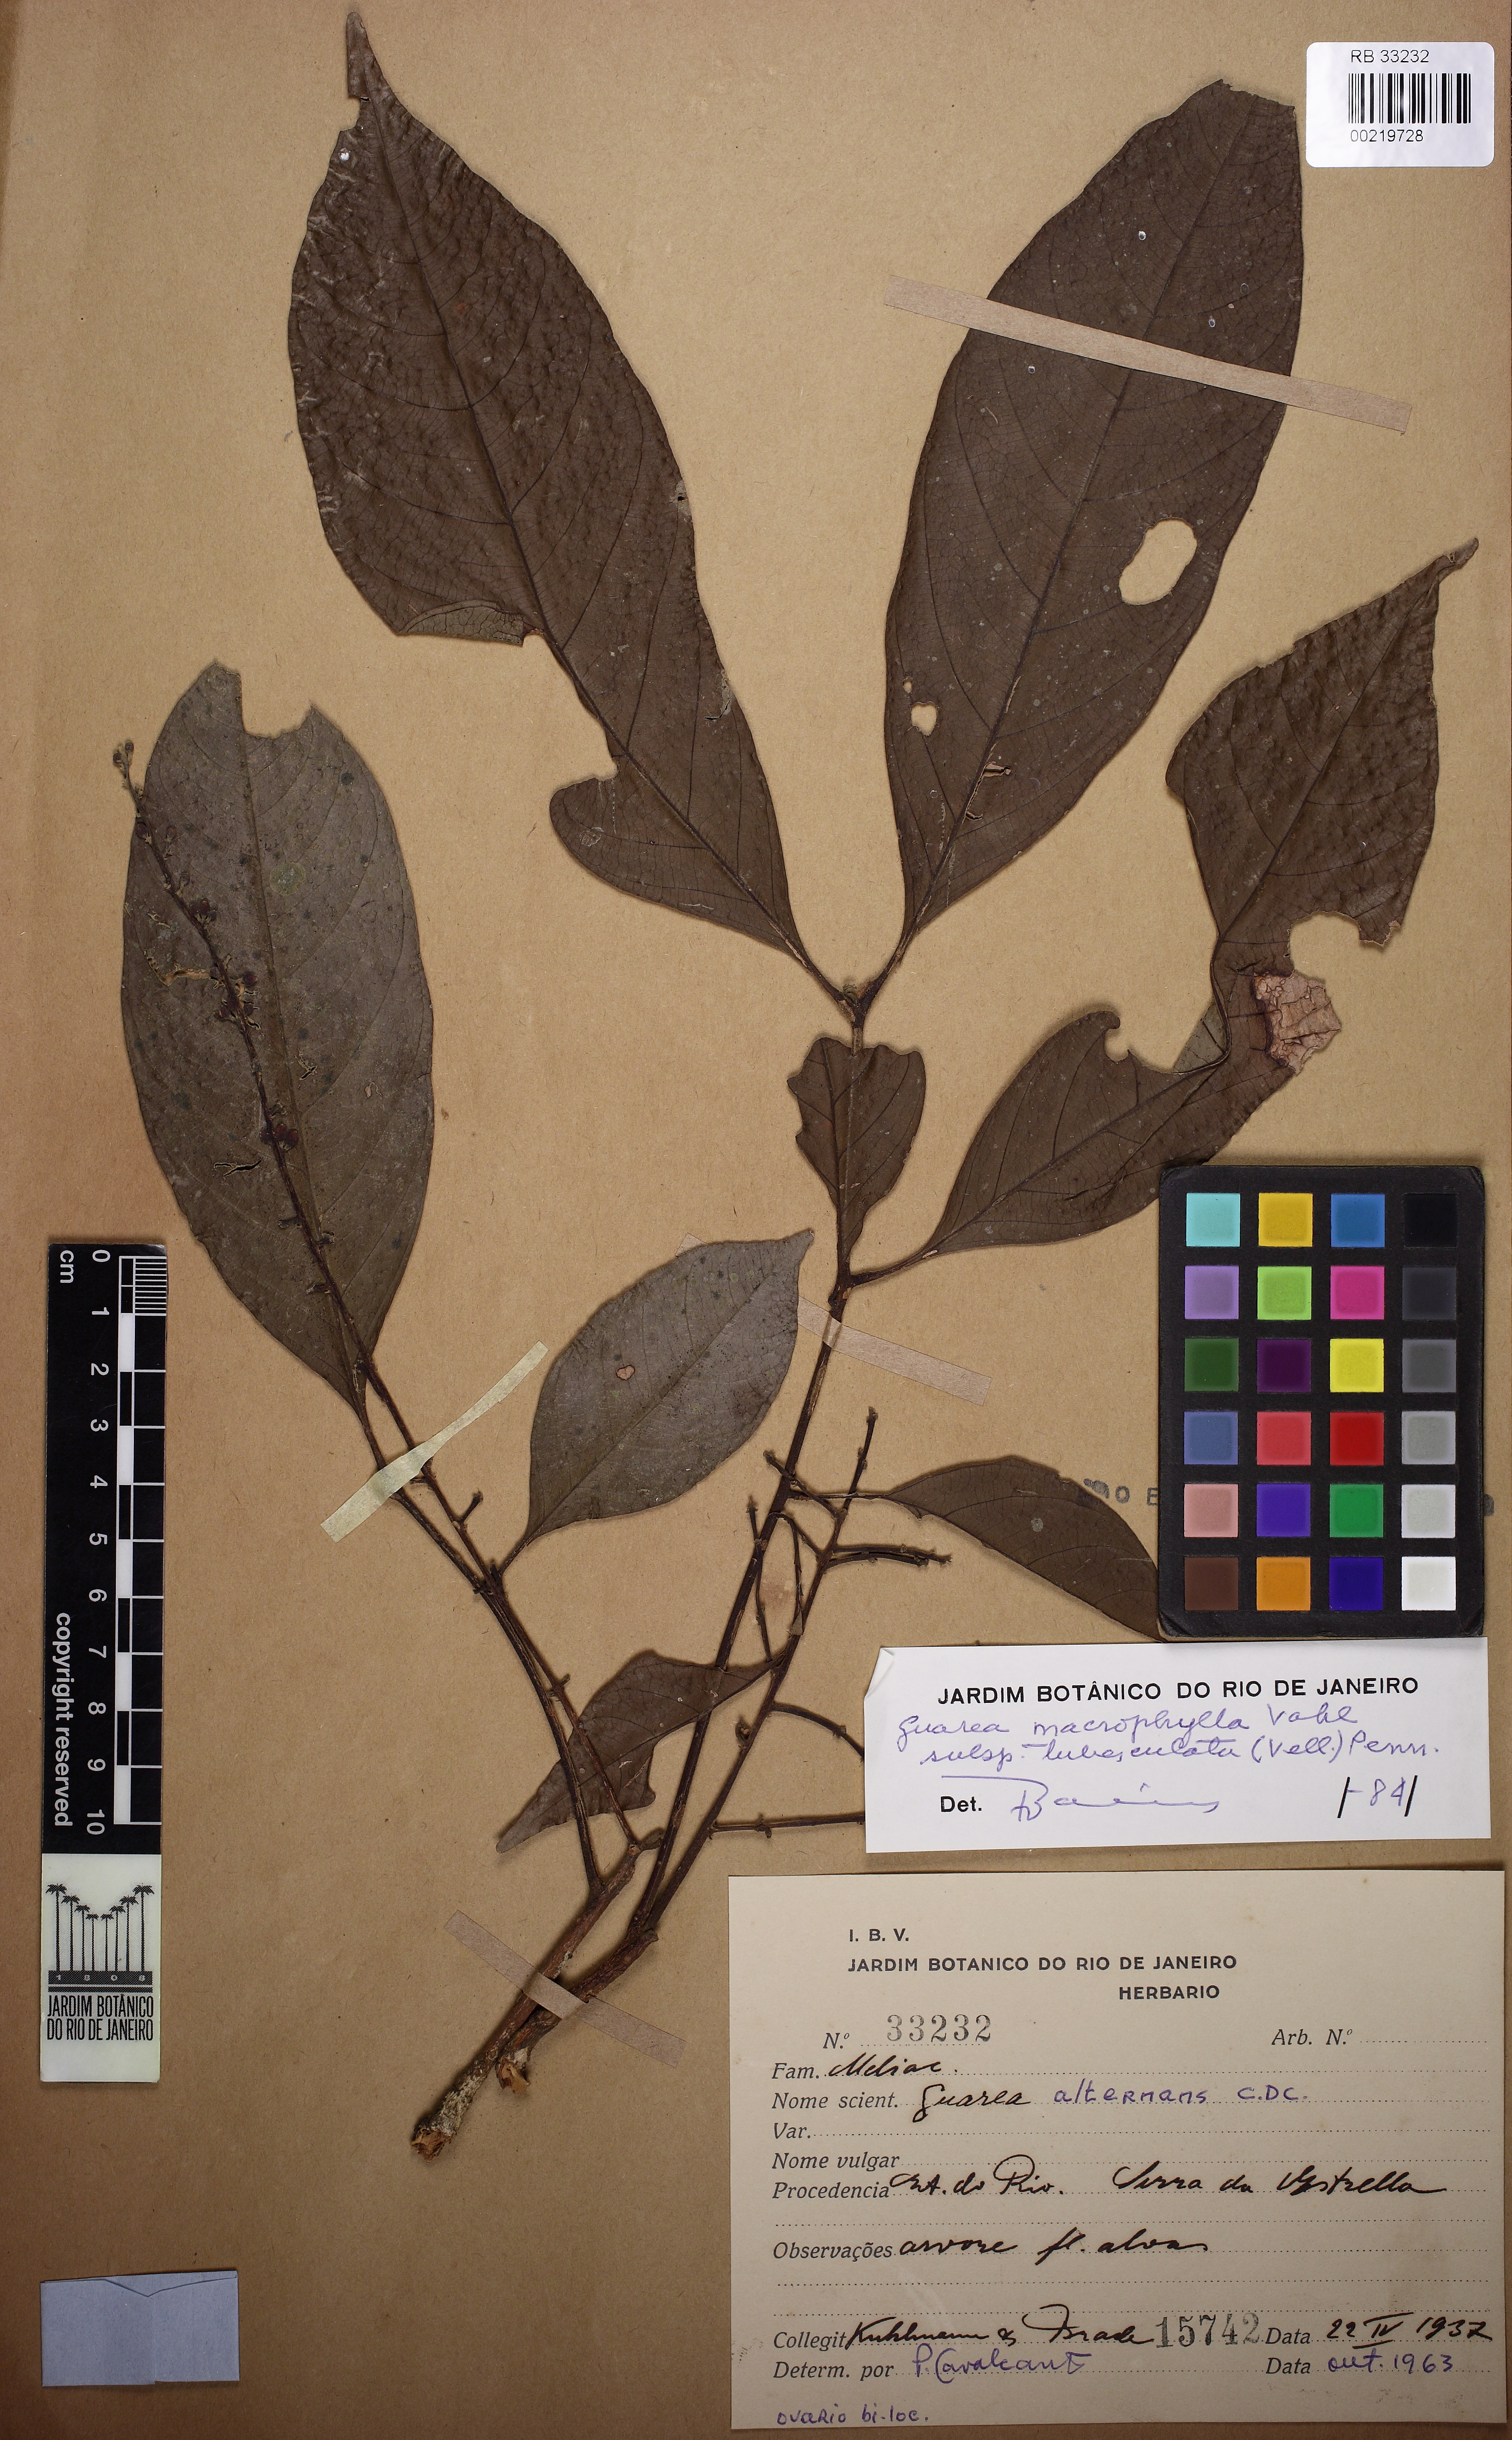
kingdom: Plantae
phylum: Tracheophyta
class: Magnoliopsida
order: Sapindales
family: Meliaceae
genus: Guarea
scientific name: Guarea macrophylla
